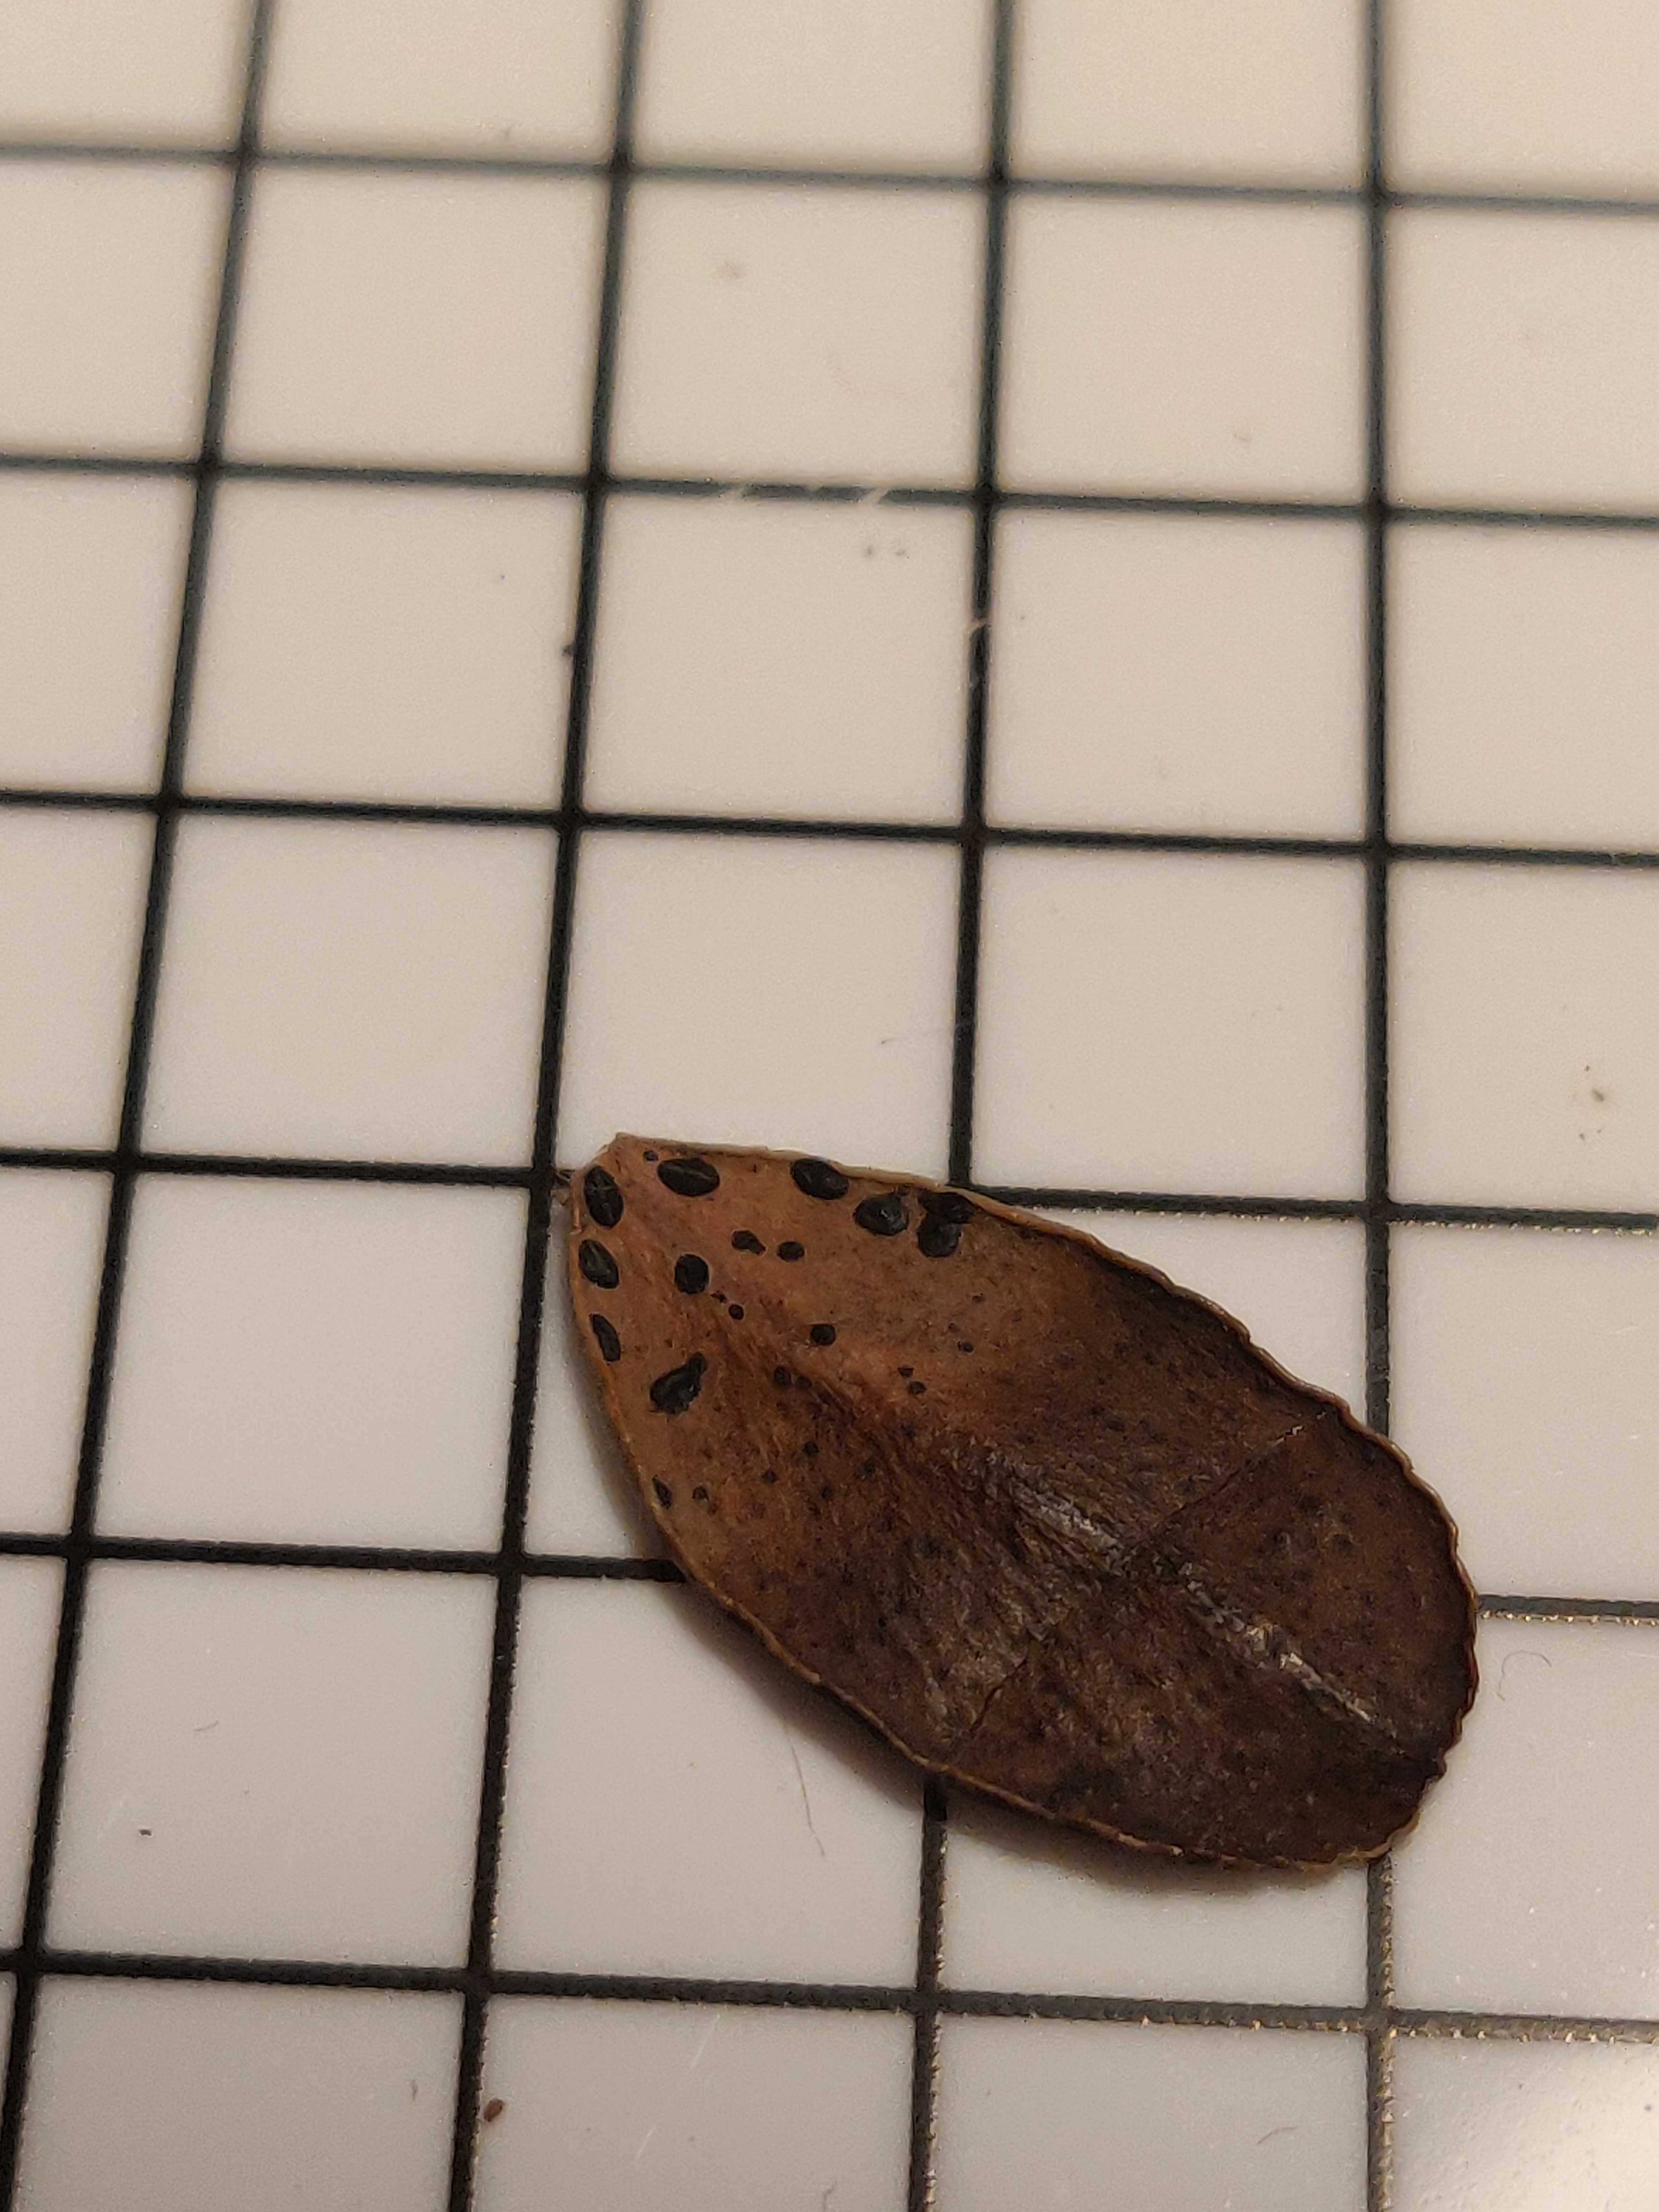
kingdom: Fungi
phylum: Ascomycota
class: Leotiomycetes
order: Rhytismatales
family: Rhytismataceae
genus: Lophodermium
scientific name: Lophodermium melaleucum
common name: tyttebær-fureplet
